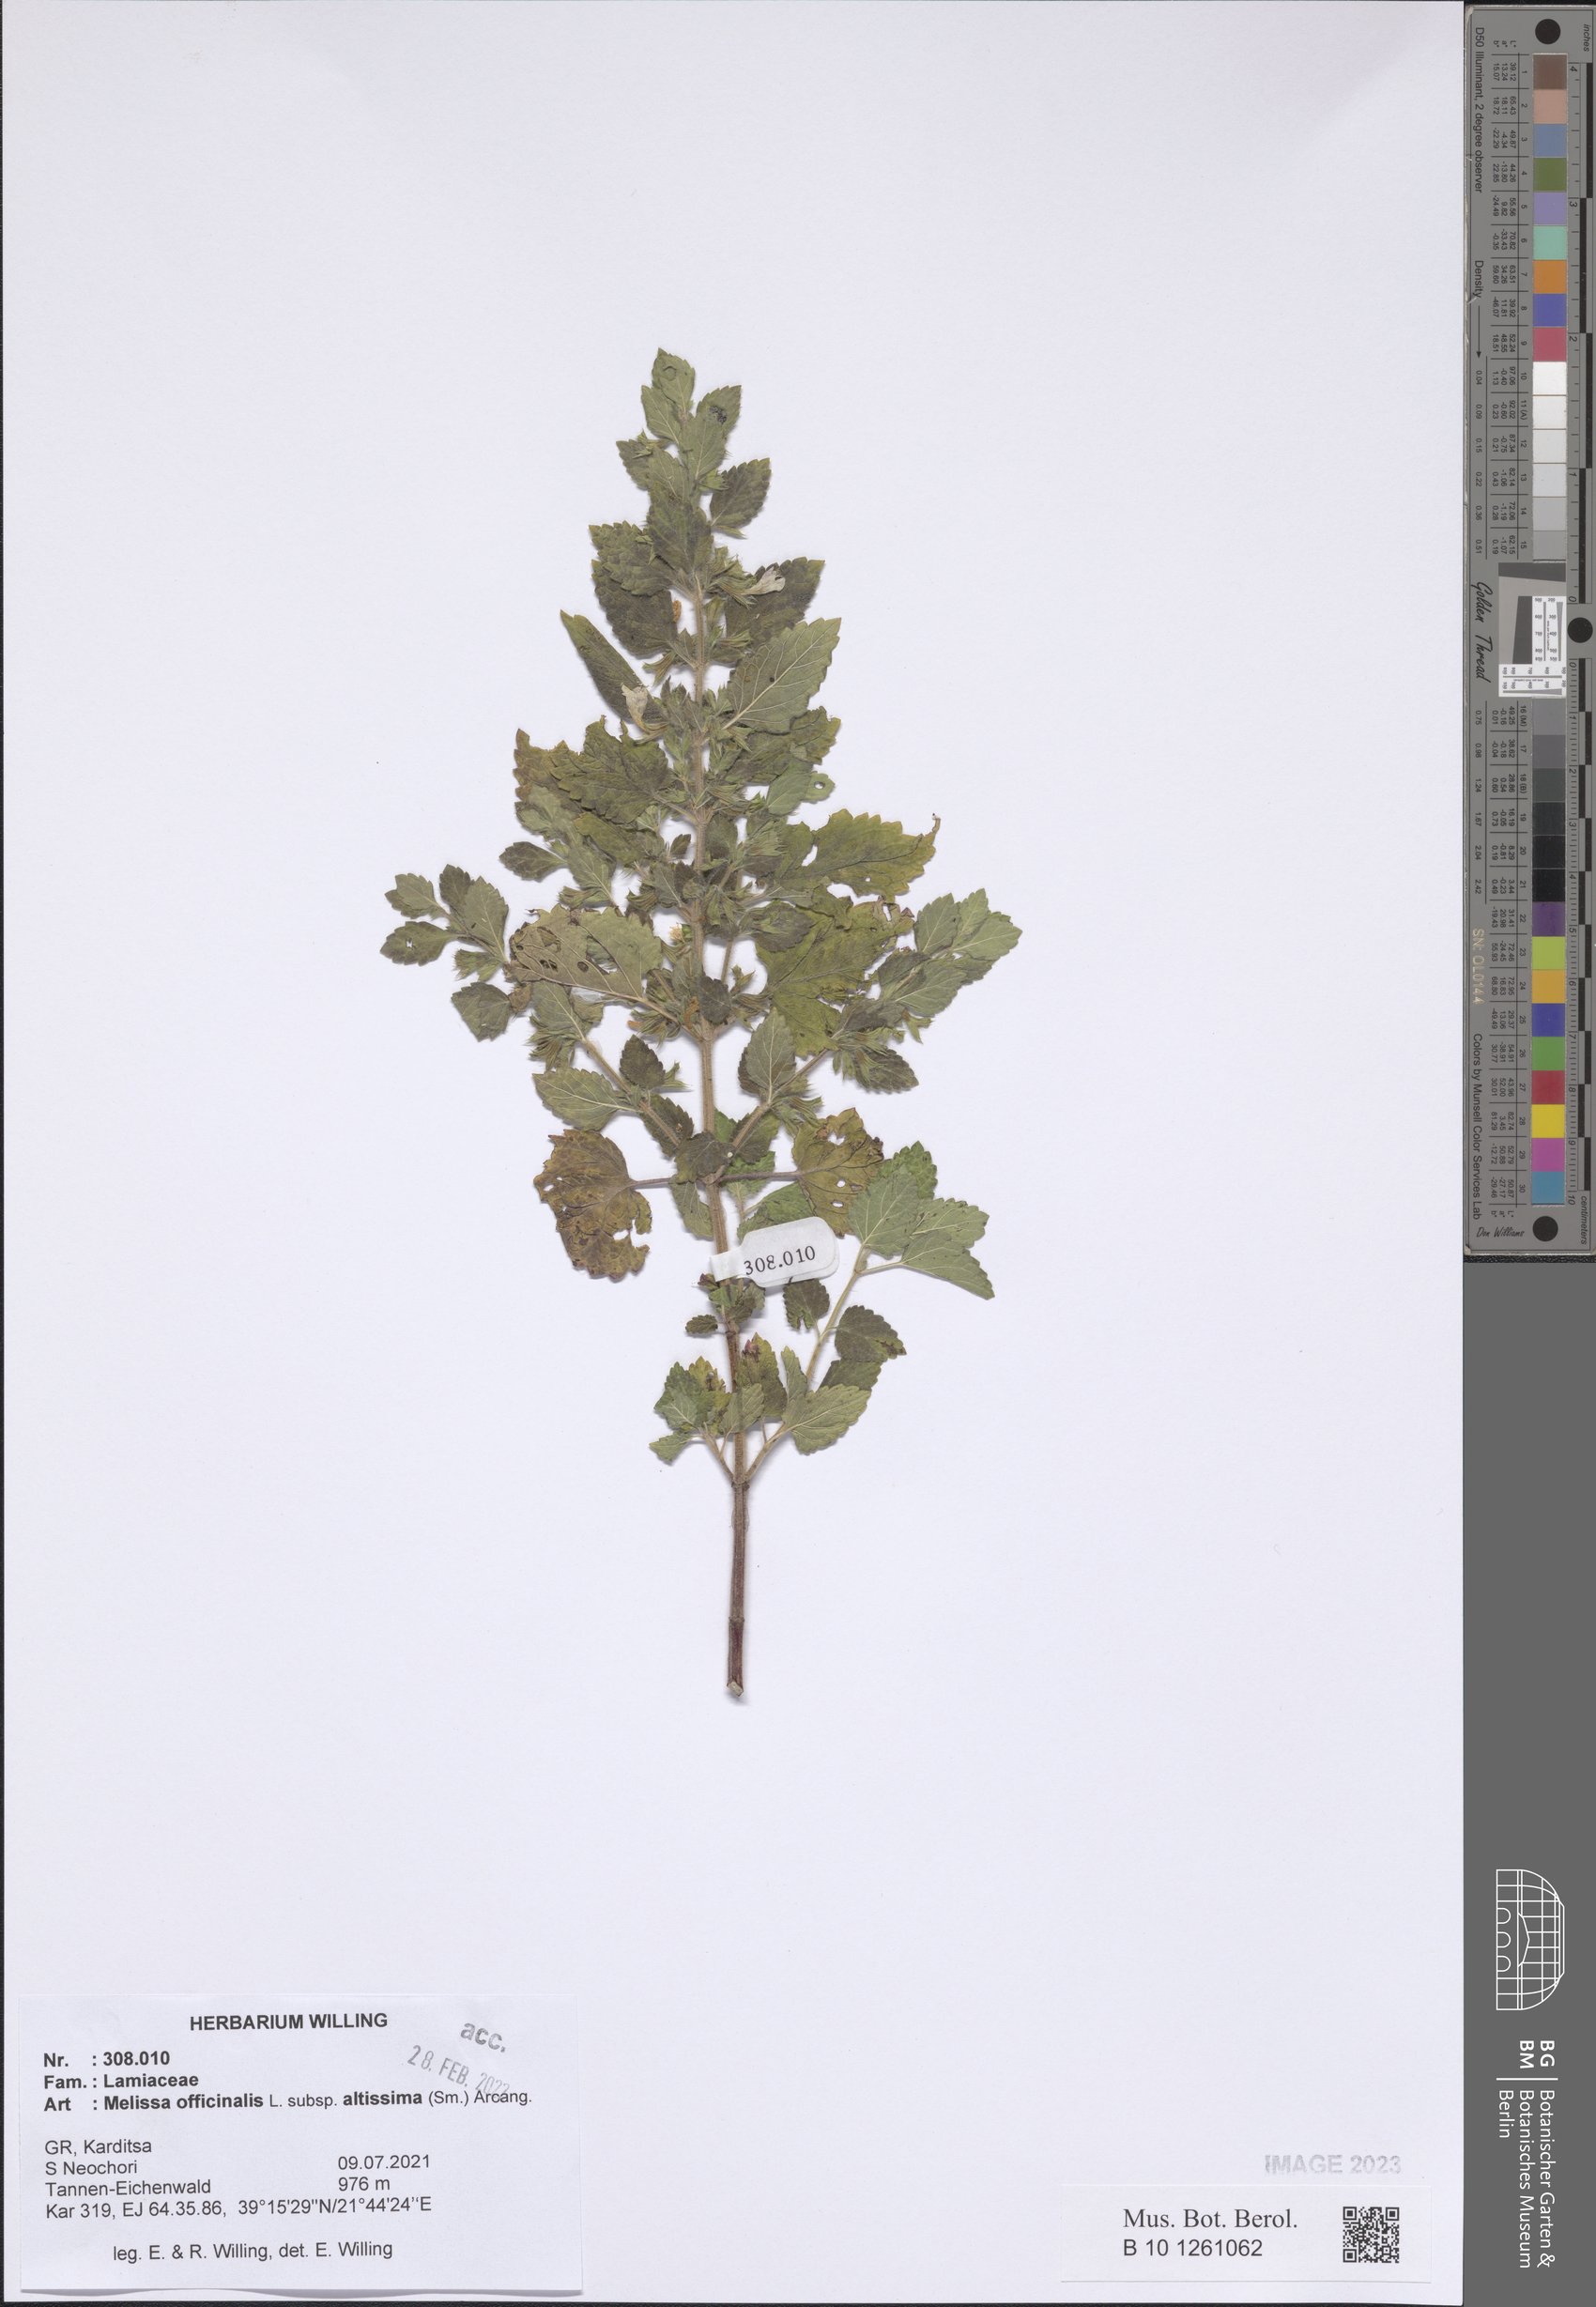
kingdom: Plantae
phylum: Tracheophyta
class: Magnoliopsida
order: Lamiales
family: Lamiaceae
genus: Melissa
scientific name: Melissa officinalis
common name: Balm
